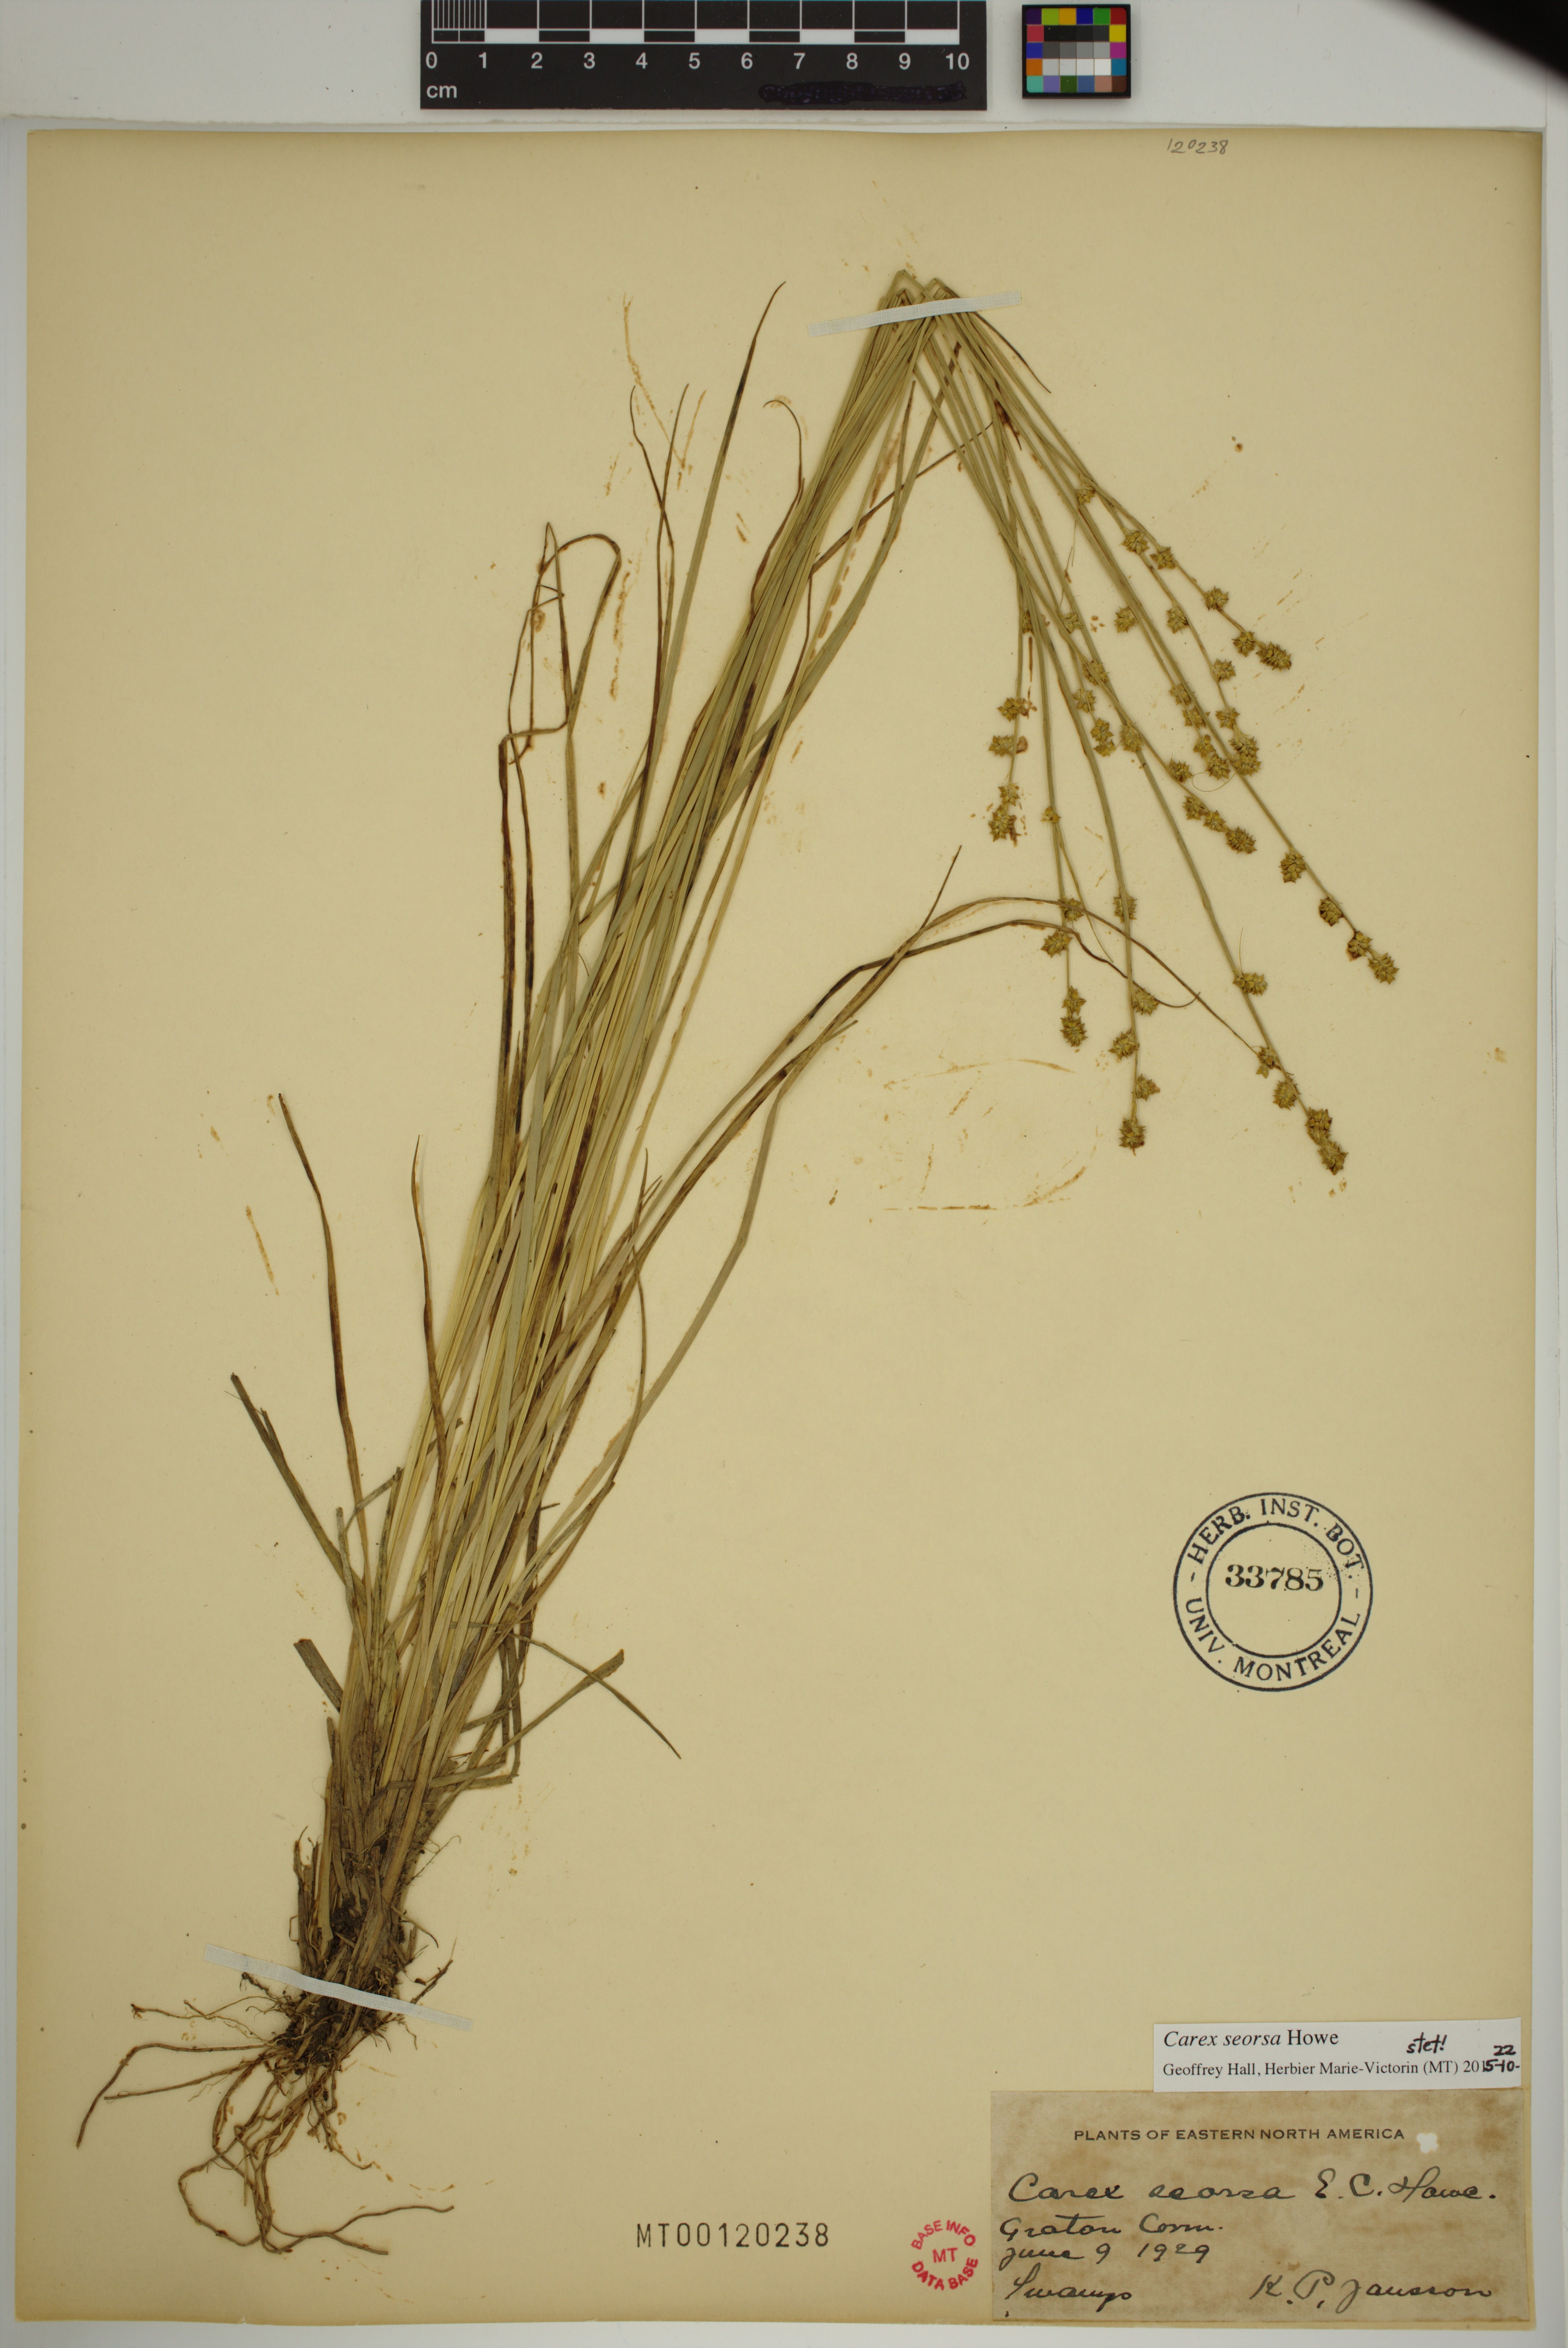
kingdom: Plantae
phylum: Tracheophyta
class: Liliopsida
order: Poales
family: Cyperaceae
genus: Carex
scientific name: Carex seorsa
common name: Swamp star sedge
